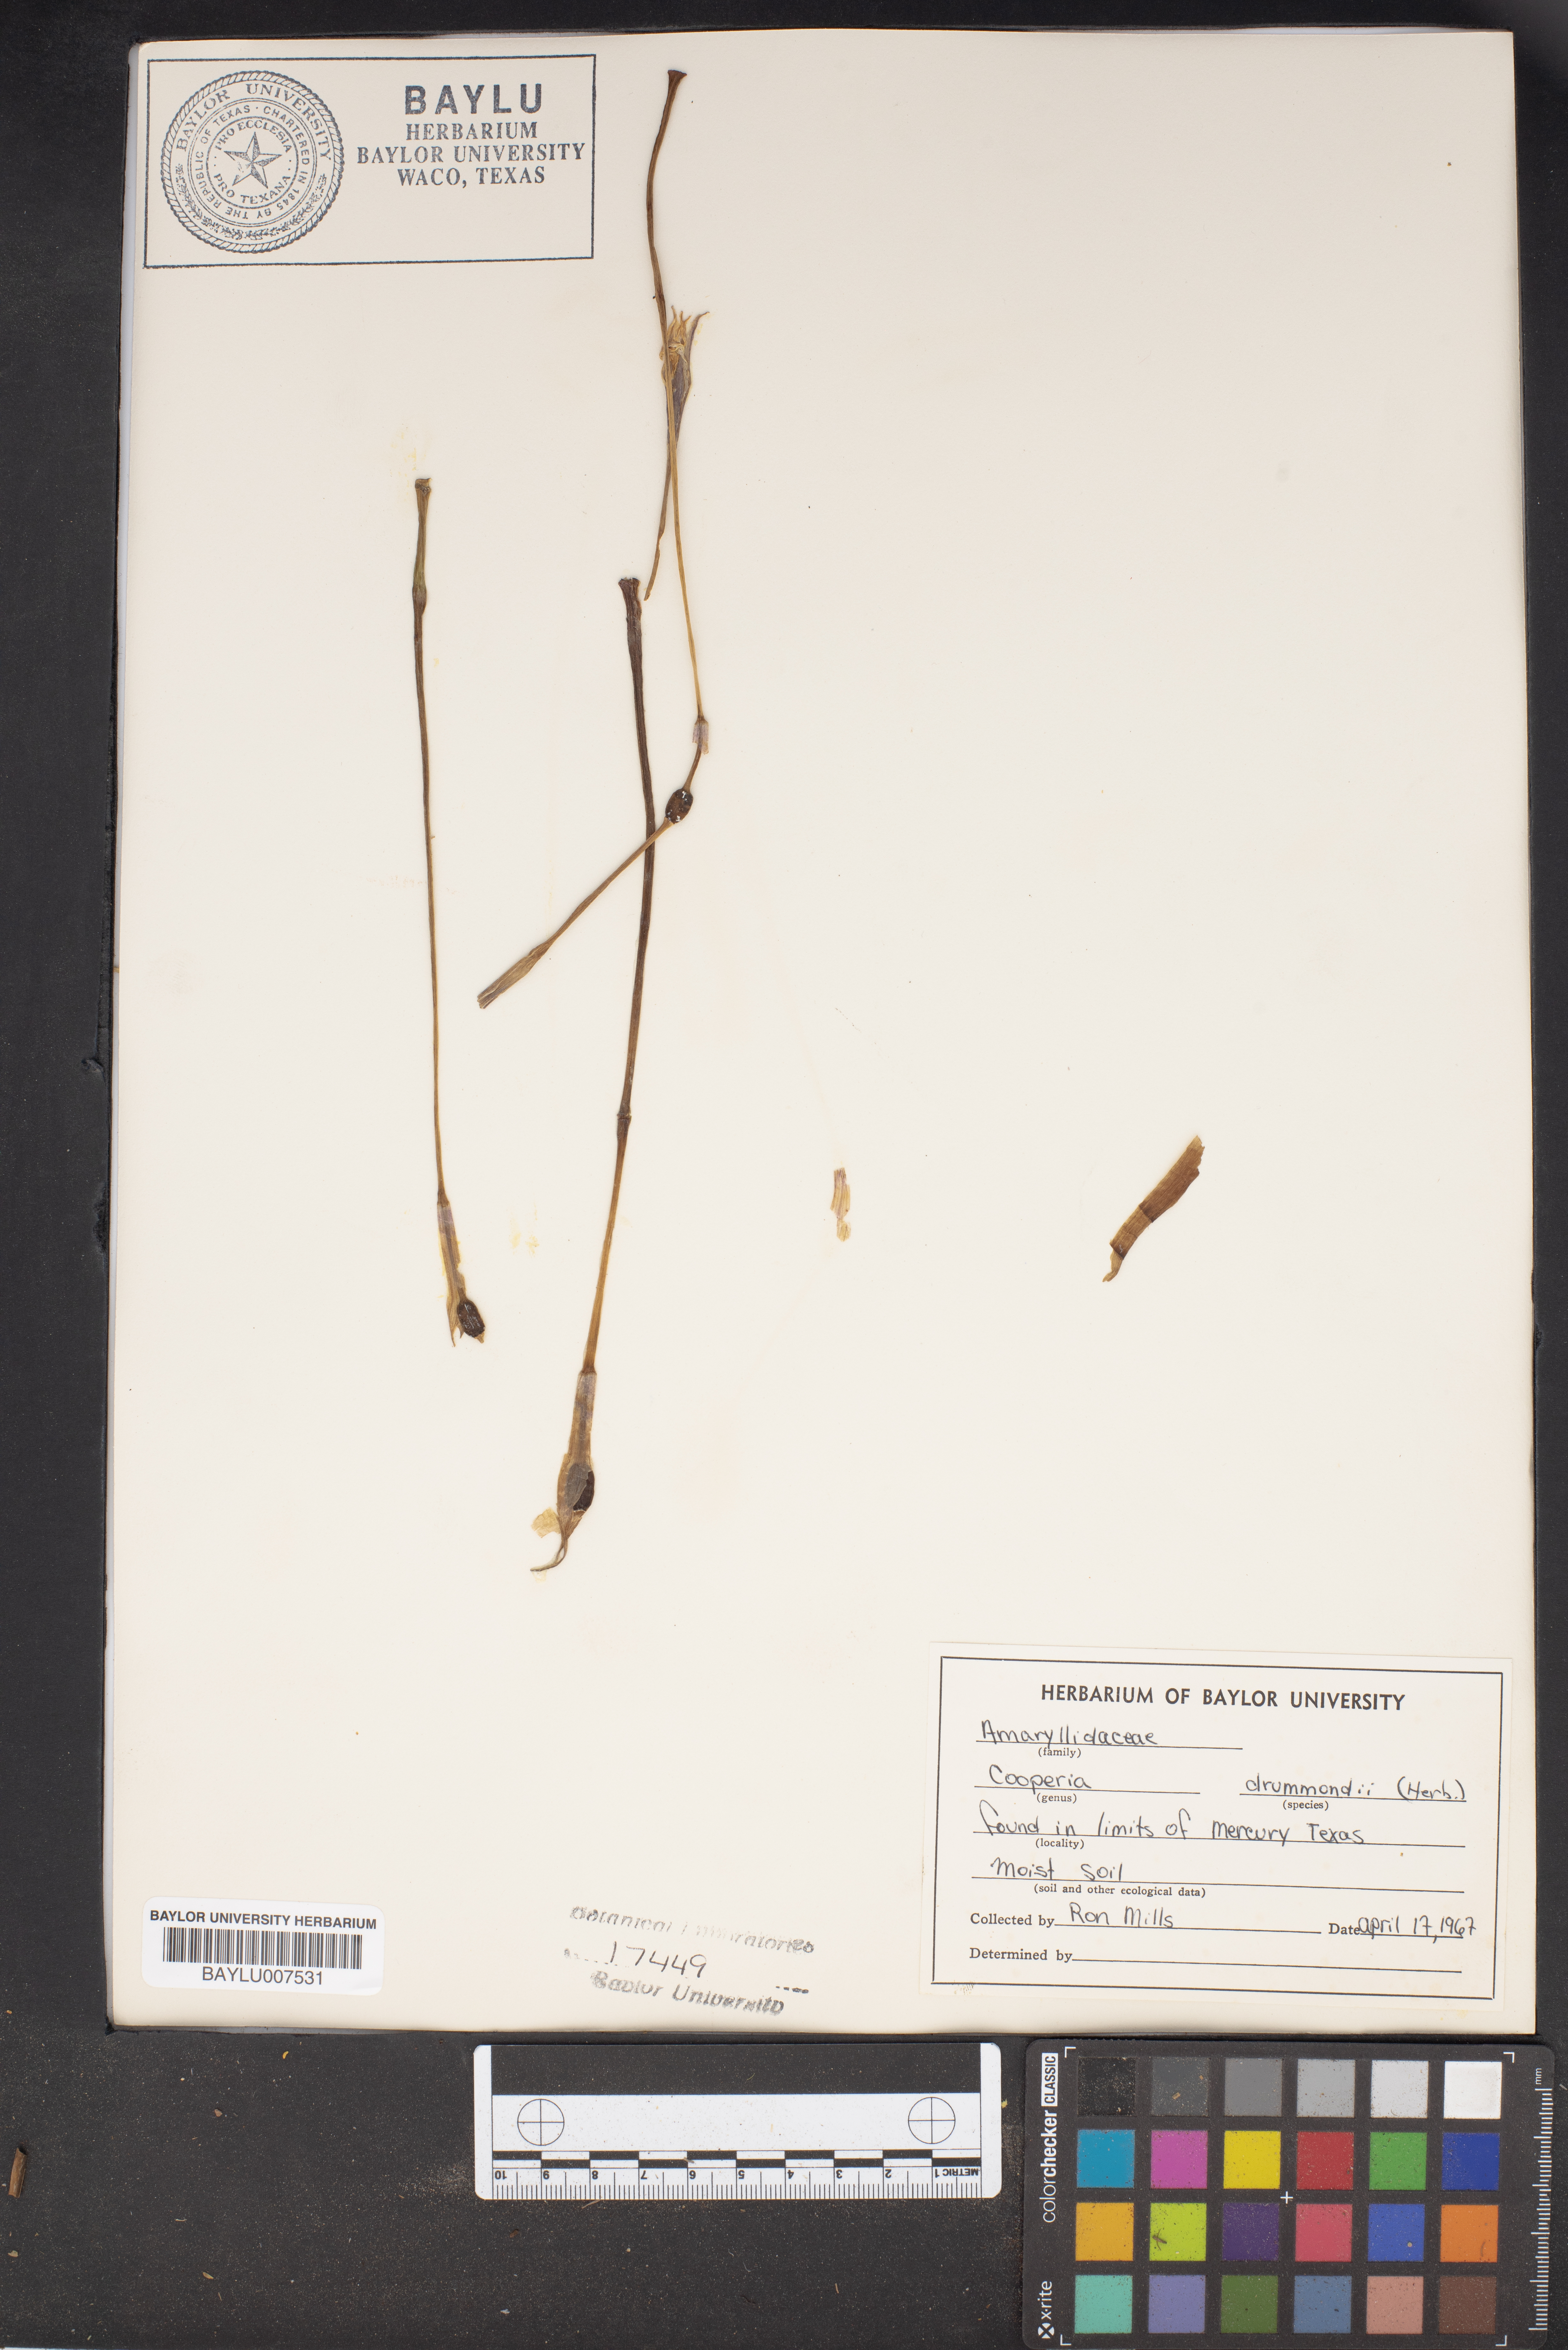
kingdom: Plantae
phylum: Tracheophyta
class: Liliopsida
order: Asparagales
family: Amaryllidaceae
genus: Zephyranthes
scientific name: Zephyranthes chlorosolen
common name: Evening rain-lily
